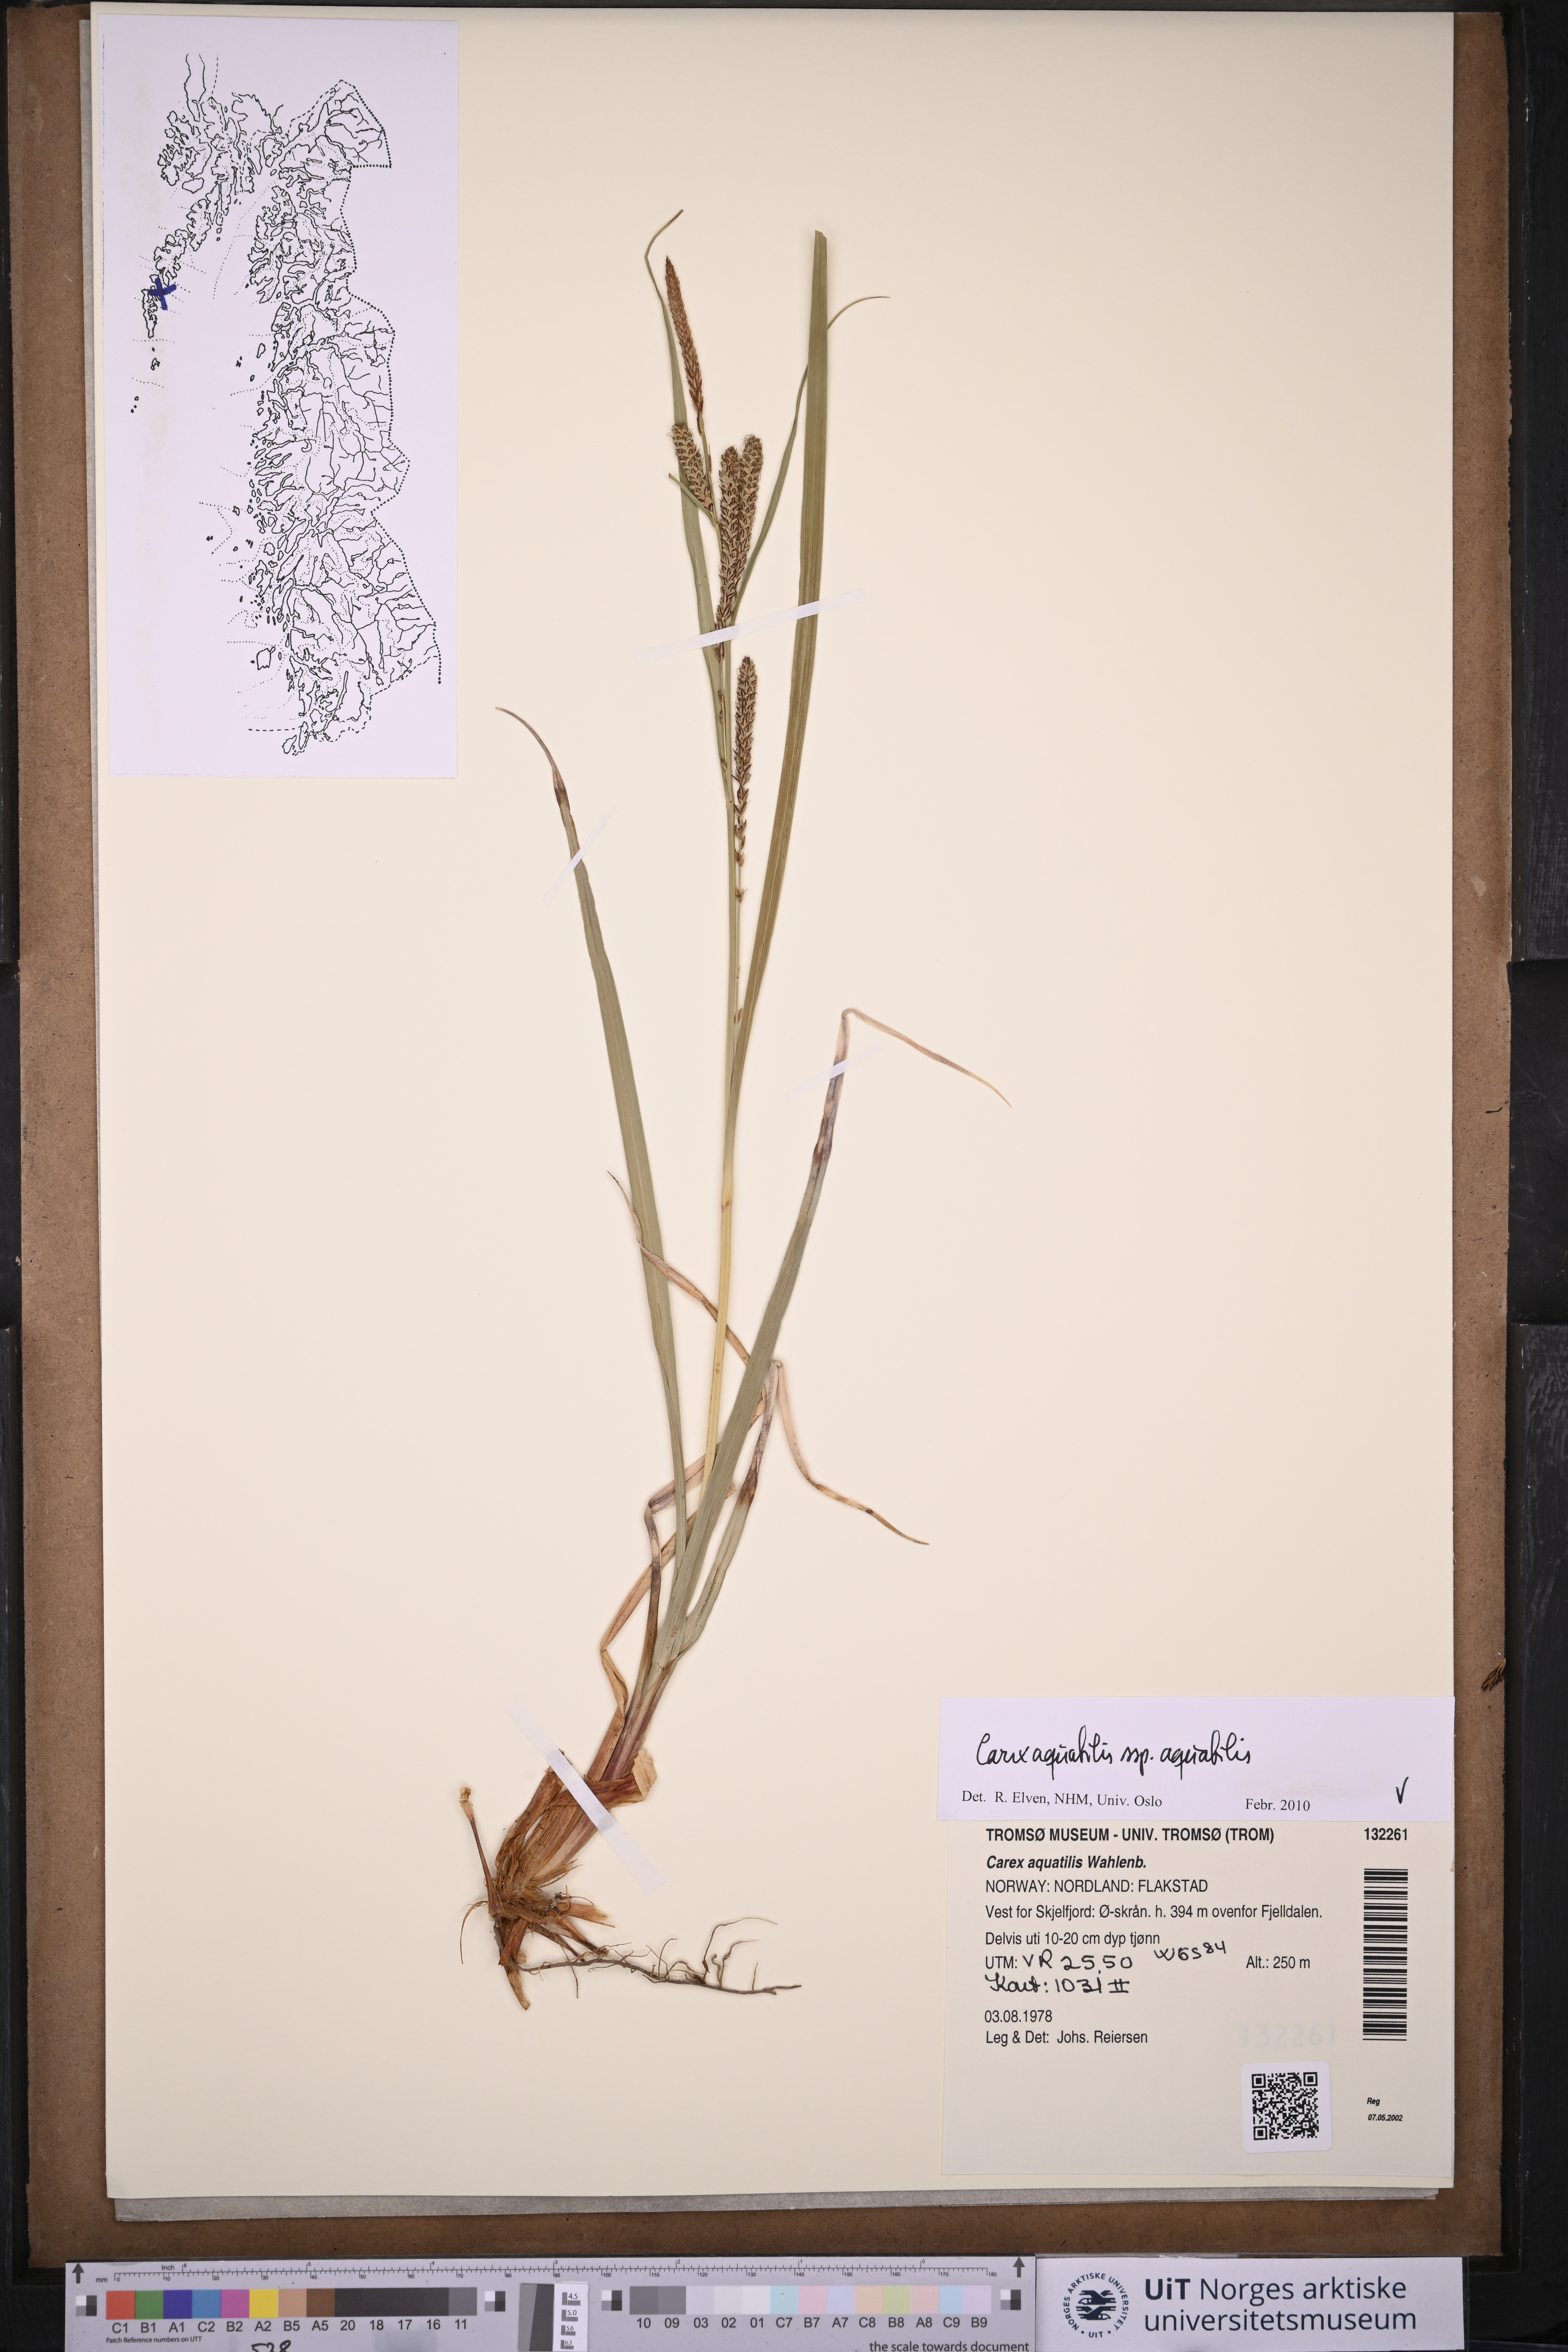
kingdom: Plantae
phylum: Tracheophyta
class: Liliopsida
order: Poales
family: Cyperaceae
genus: Carex
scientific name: Carex aquatilis
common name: Water sedge
